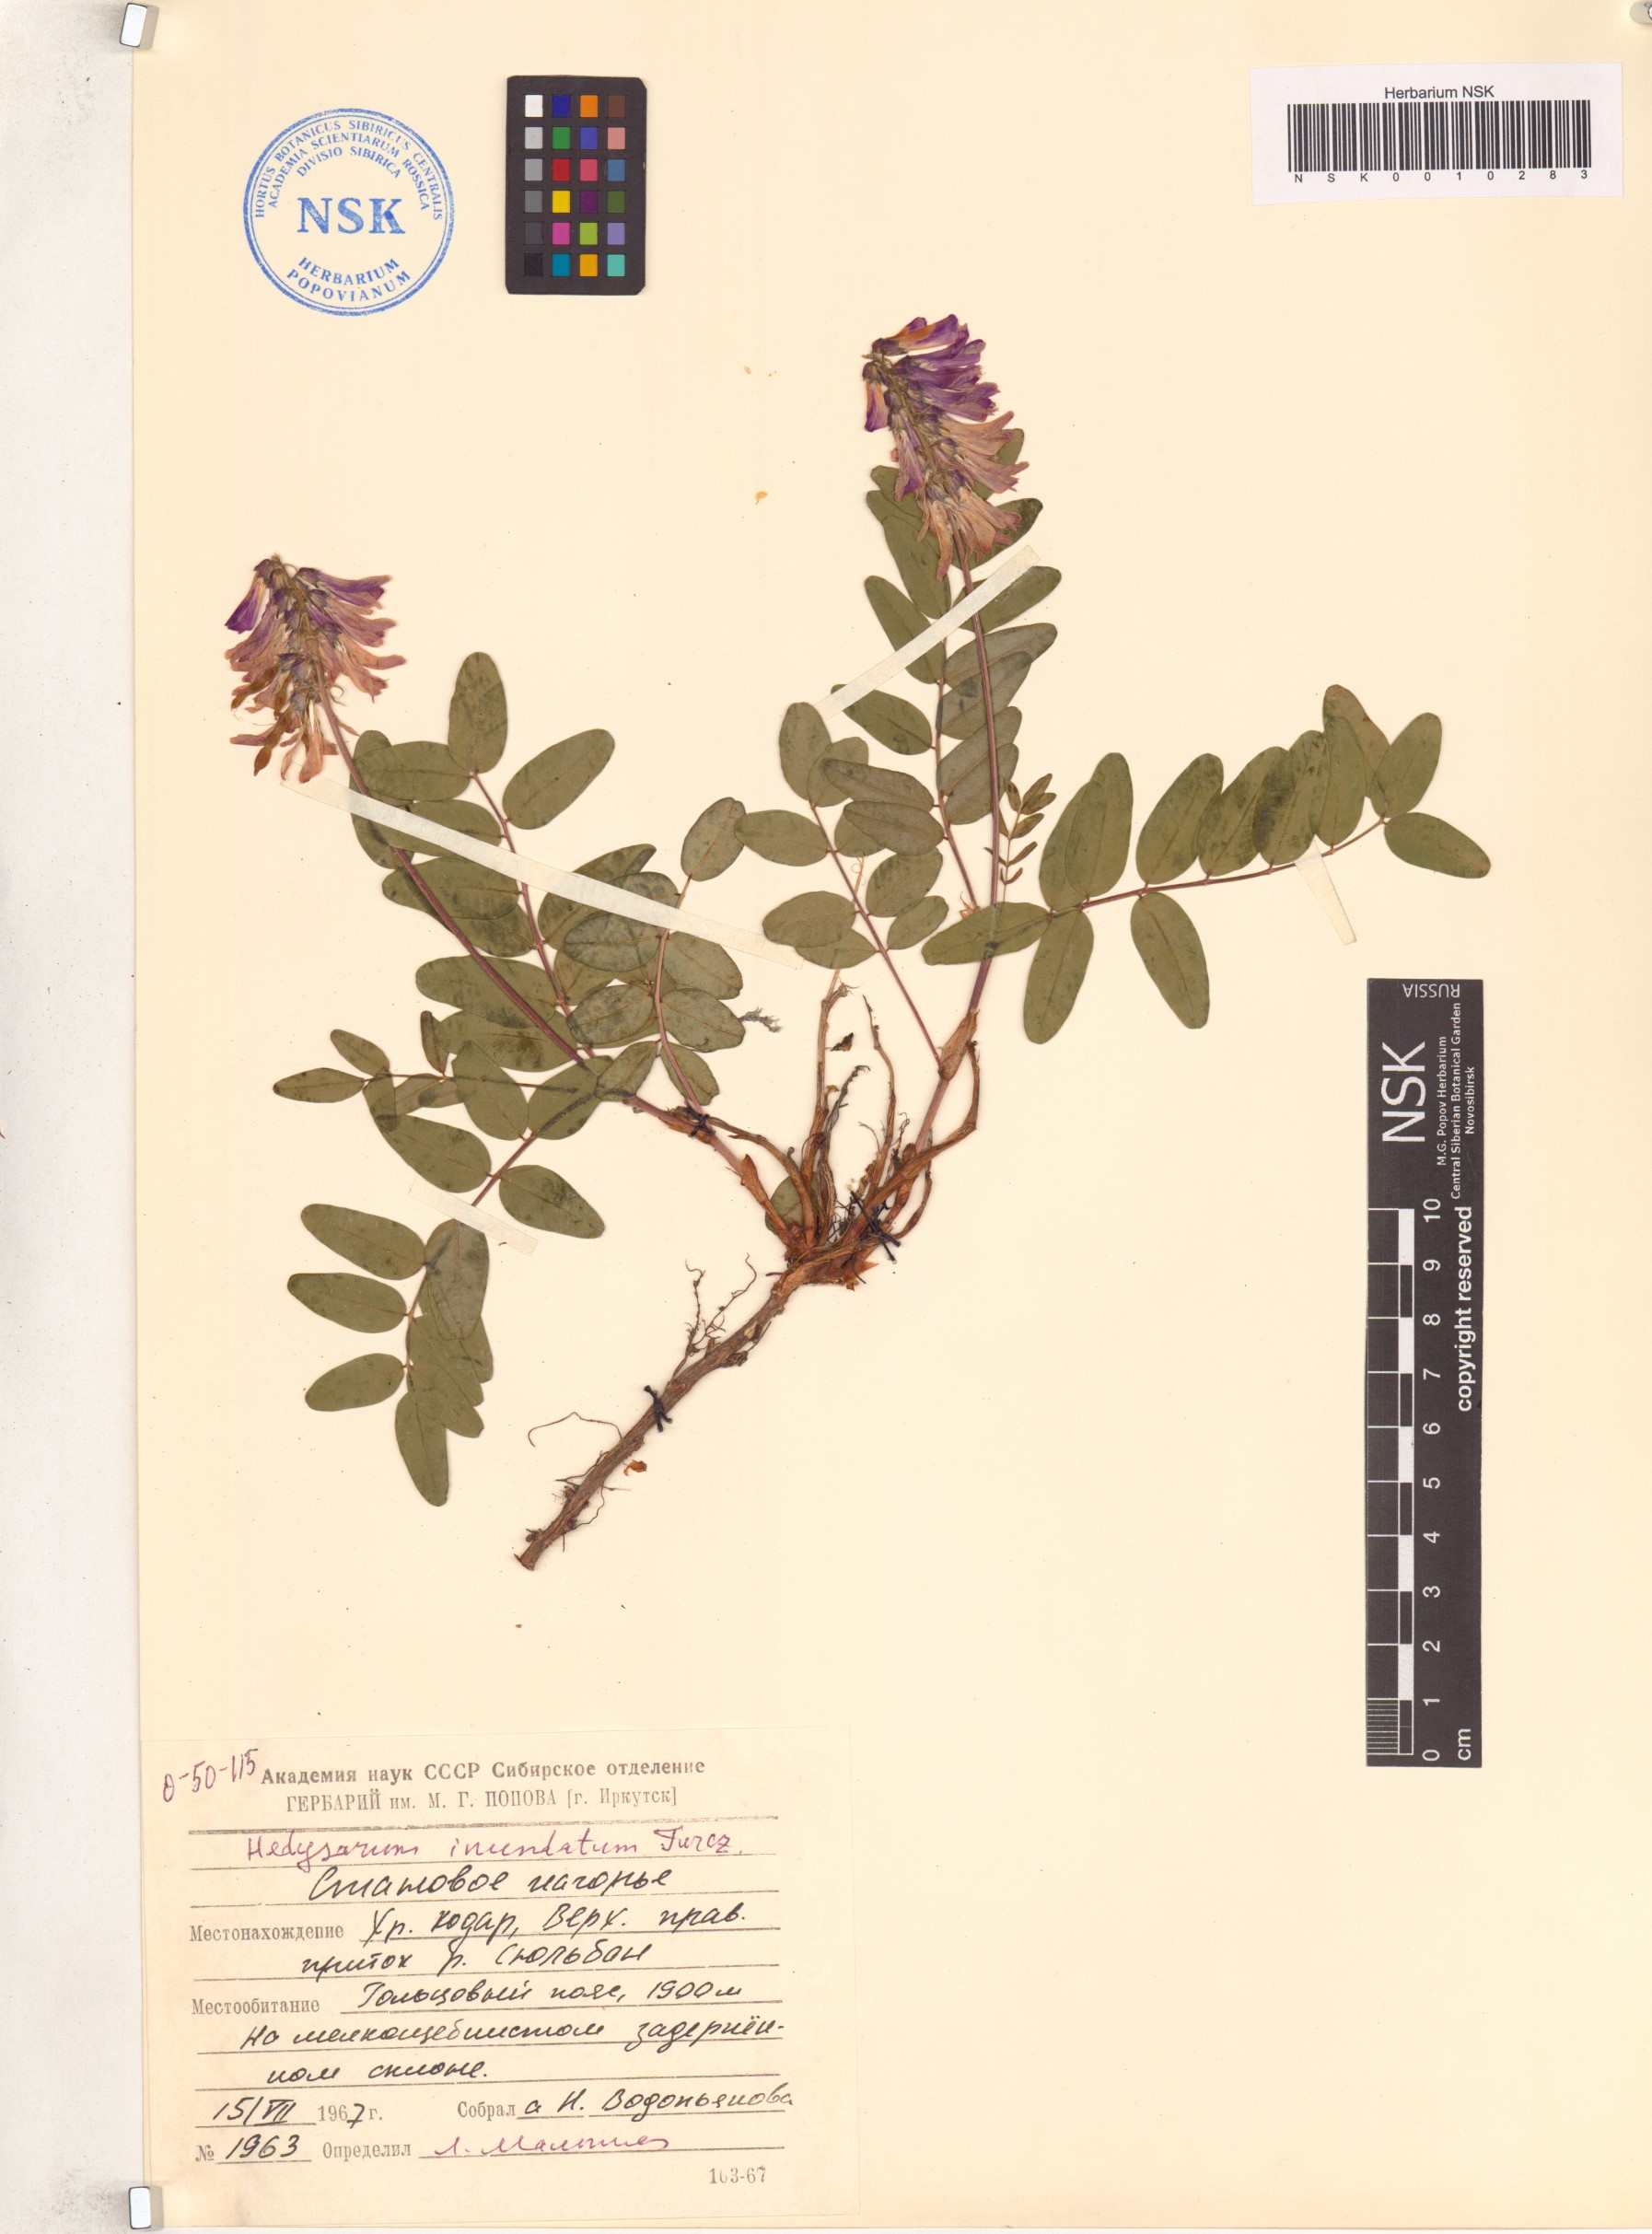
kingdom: Plantae
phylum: Tracheophyta
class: Magnoliopsida
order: Fabales
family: Fabaceae
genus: Hedysarum
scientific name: Hedysarum inundatum
